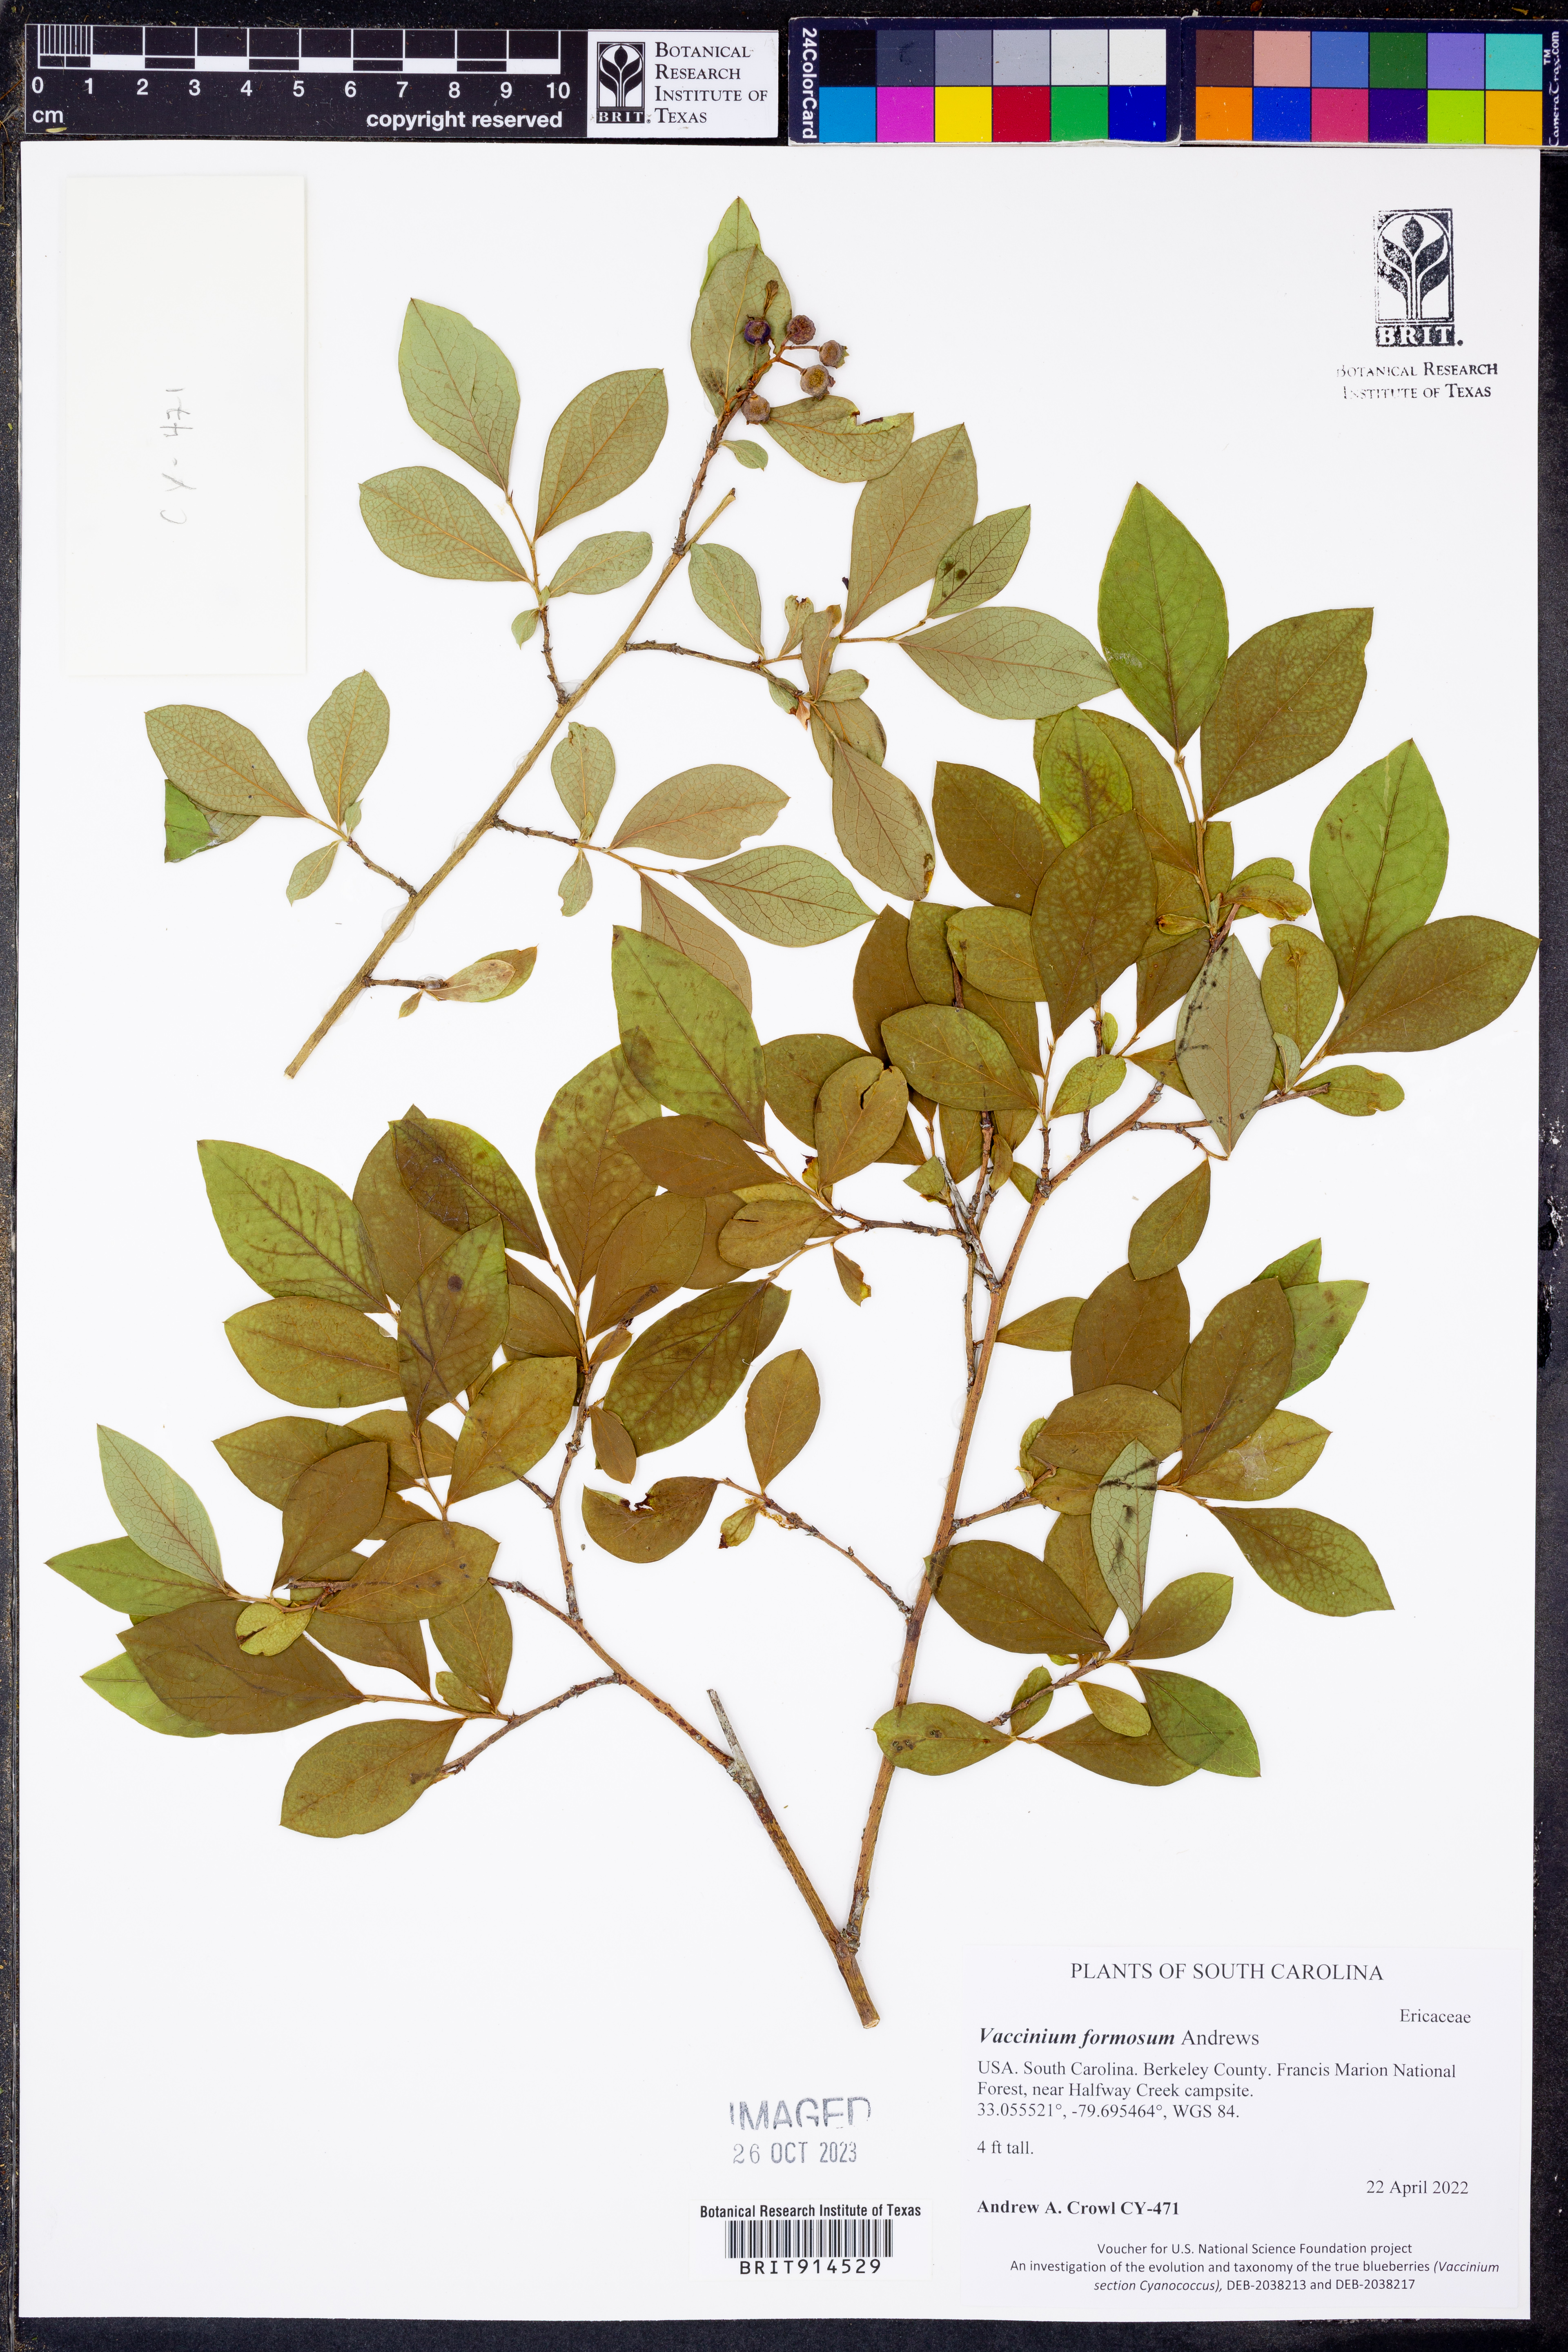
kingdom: Plantae
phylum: Tracheophyta
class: Magnoliopsida
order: Ericales
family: Ericaceae
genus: Vaccinium
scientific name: Vaccinium corymbosum
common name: Blueberry
